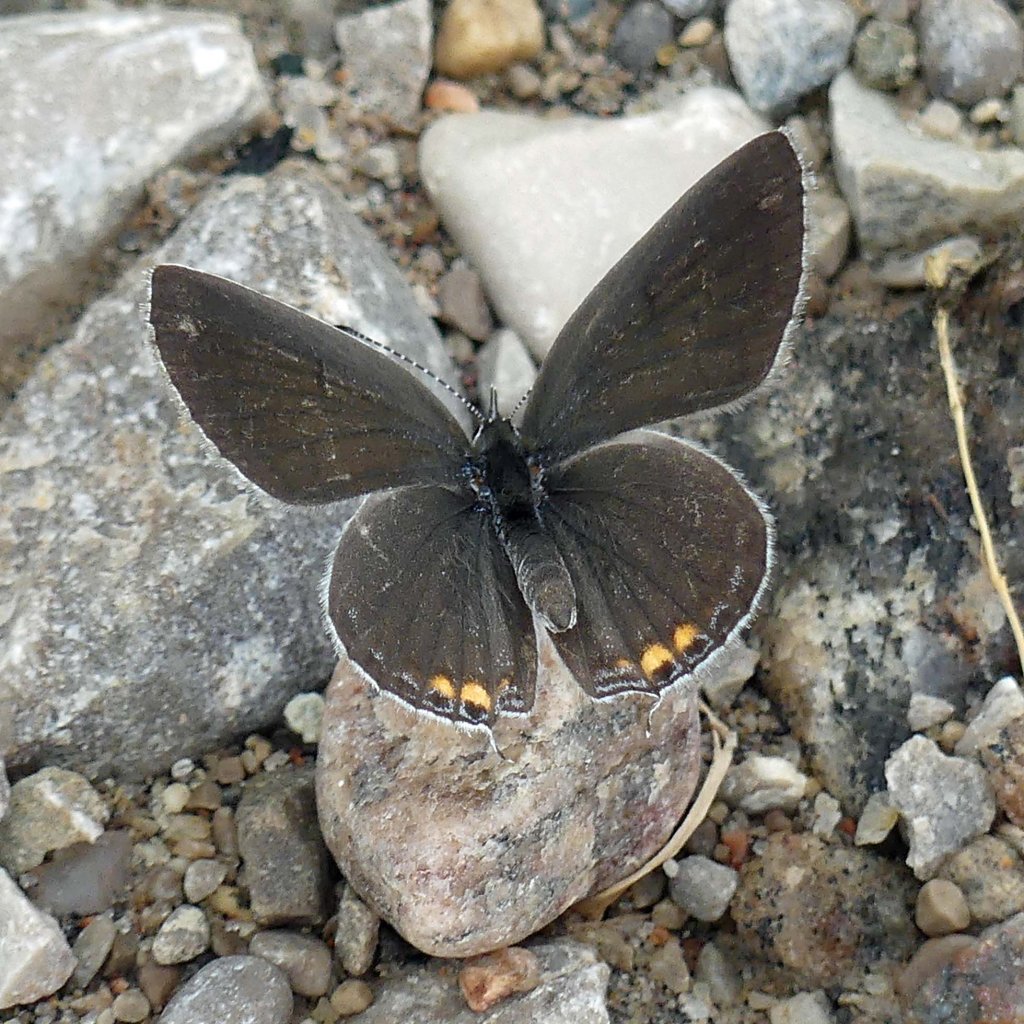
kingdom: Animalia
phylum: Arthropoda
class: Insecta
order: Lepidoptera
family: Lycaenidae
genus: Elkalyce
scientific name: Elkalyce comyntas
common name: Eastern Tailed-Blue
